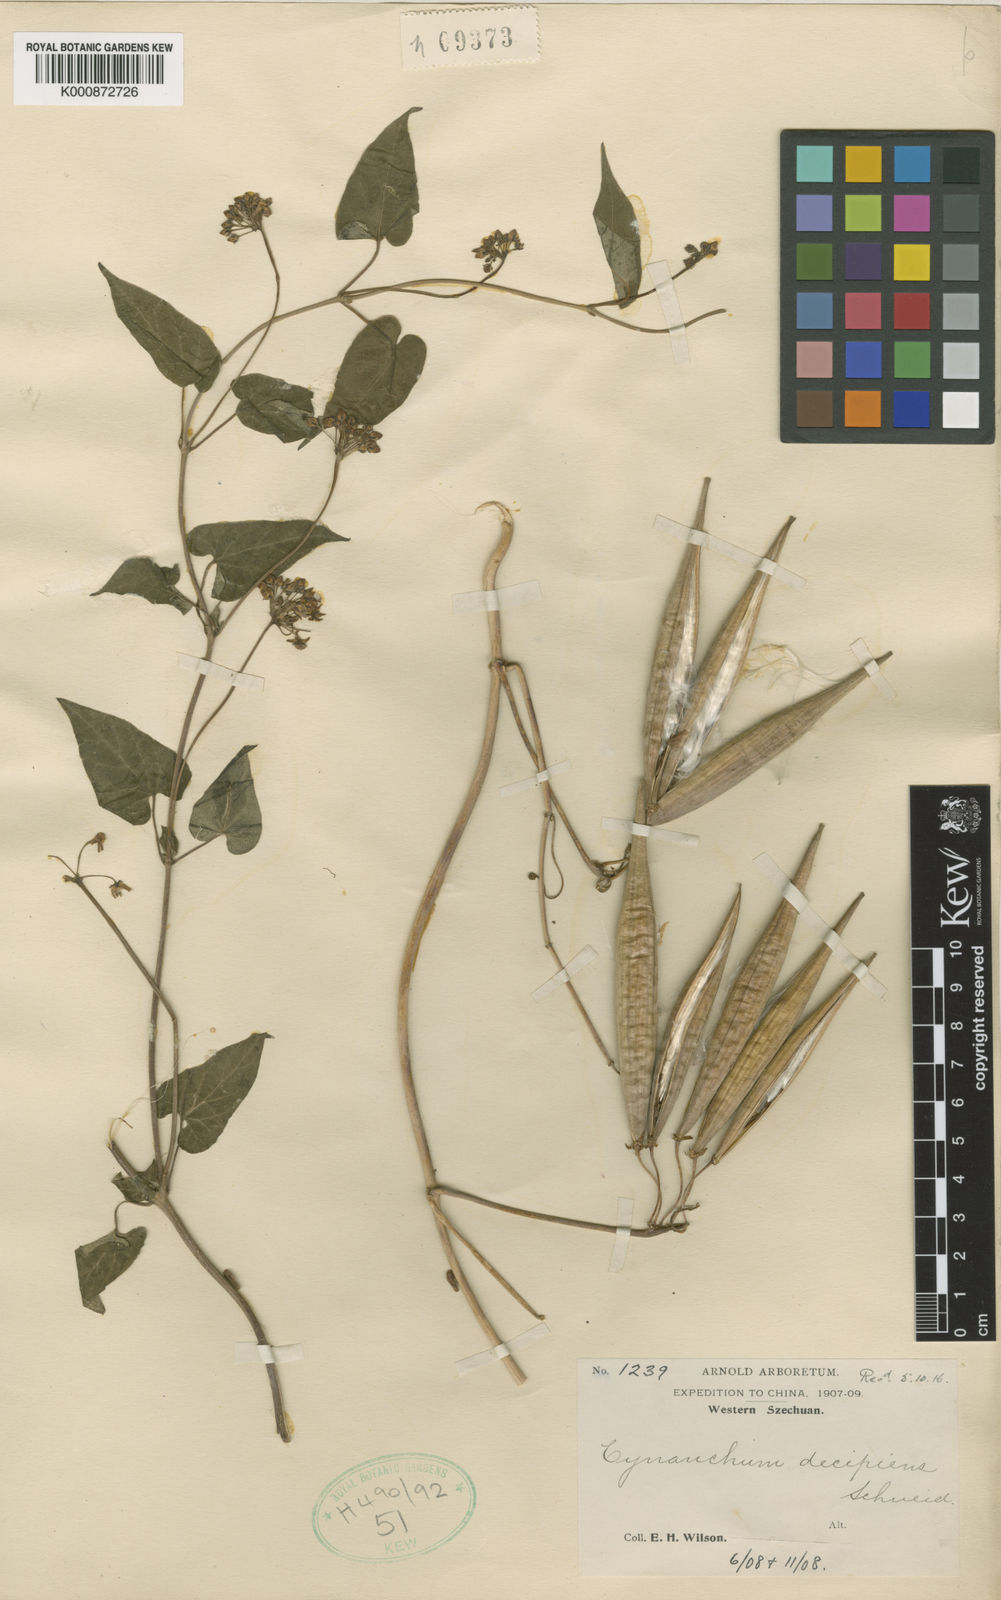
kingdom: Plantae
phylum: Tracheophyta
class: Magnoliopsida
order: Gentianales
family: Apocynaceae
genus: Cynanchum
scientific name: Cynanchum decipiens
